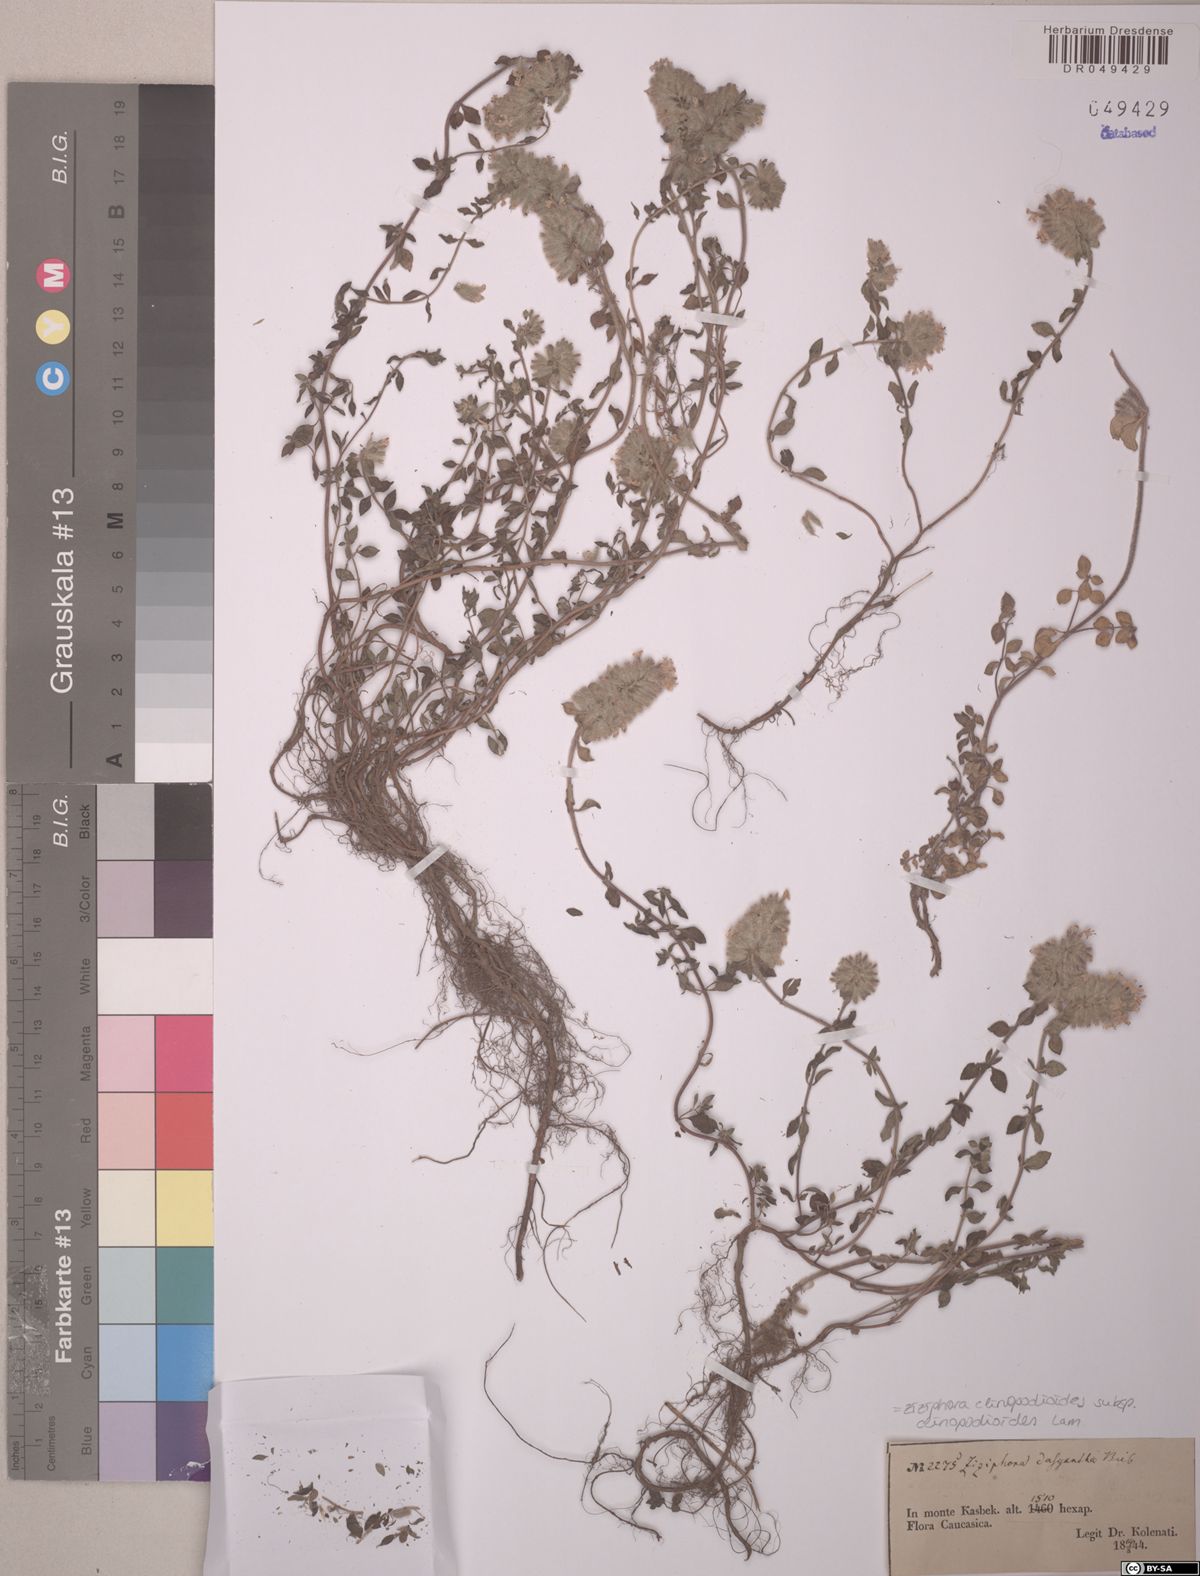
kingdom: Plantae
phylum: Tracheophyta
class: Magnoliopsida
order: Lamiales
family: Lamiaceae
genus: Ziziphora
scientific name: Ziziphora clinopodioides
